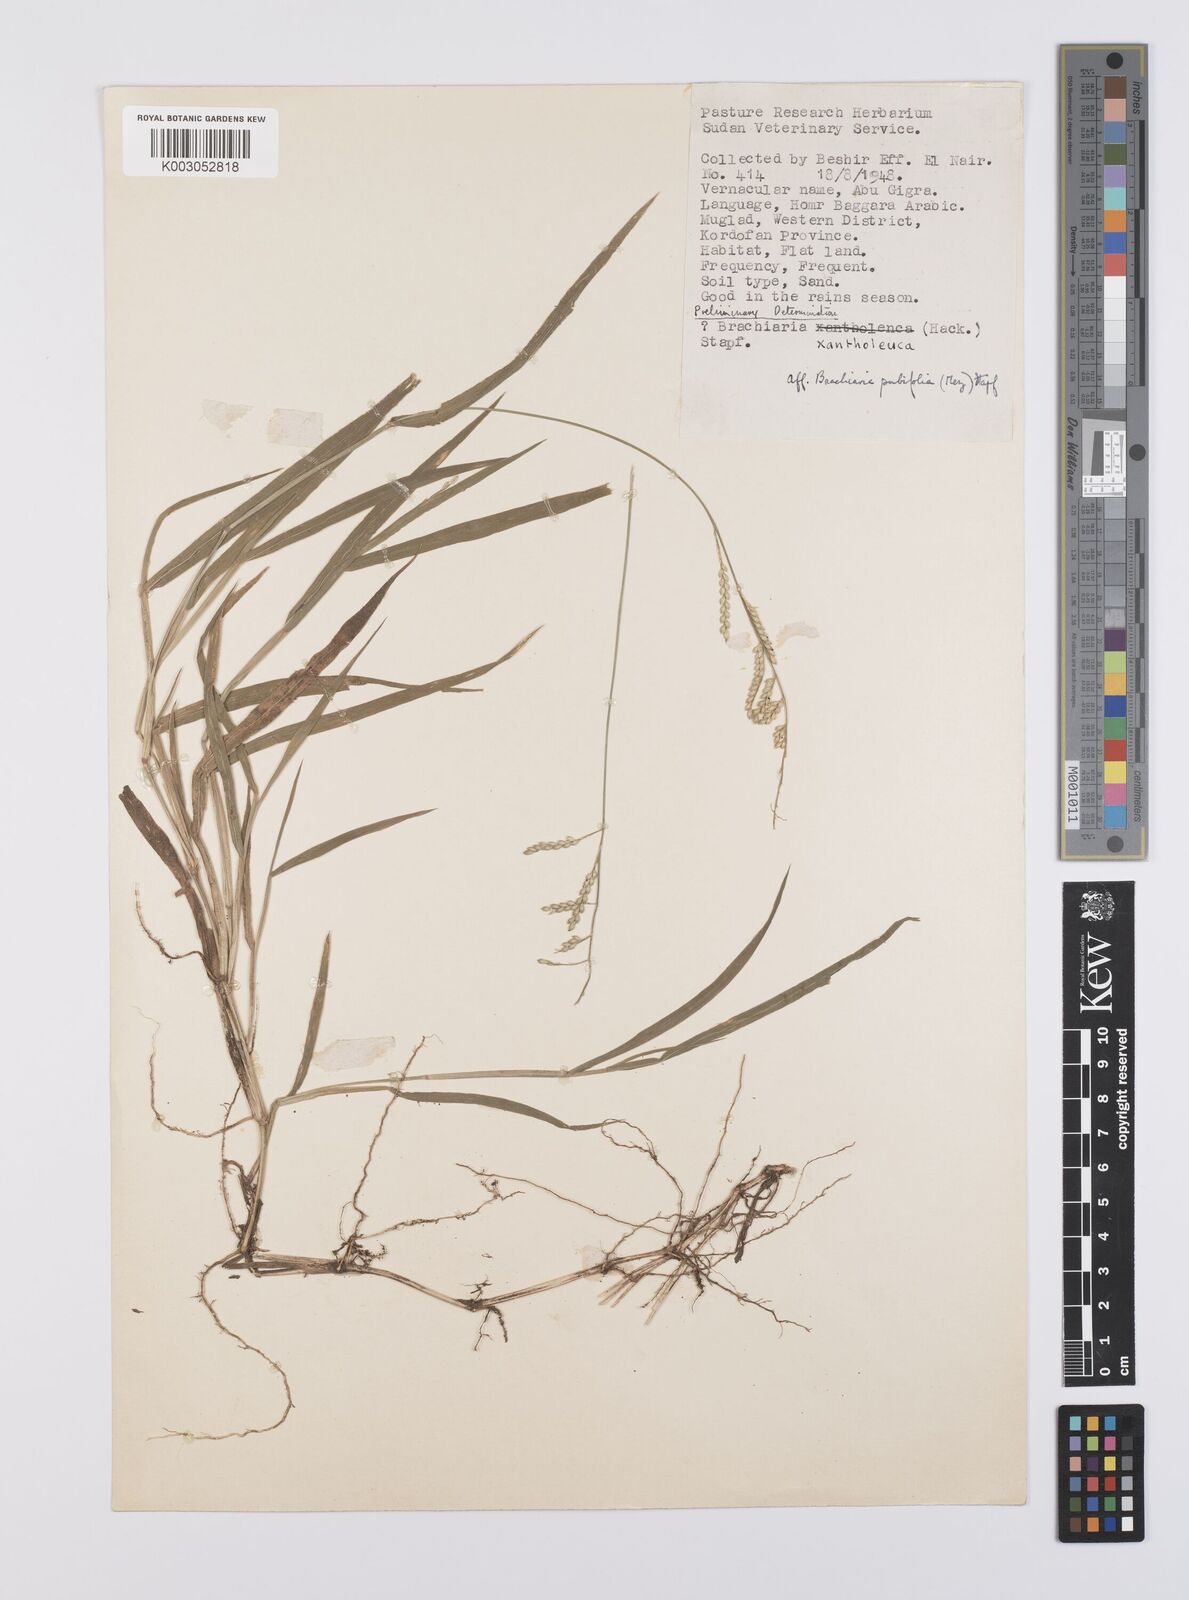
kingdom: Plantae
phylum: Tracheophyta
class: Liliopsida
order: Poales
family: Poaceae
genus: Urochloa
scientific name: Urochloa xantholeuca
